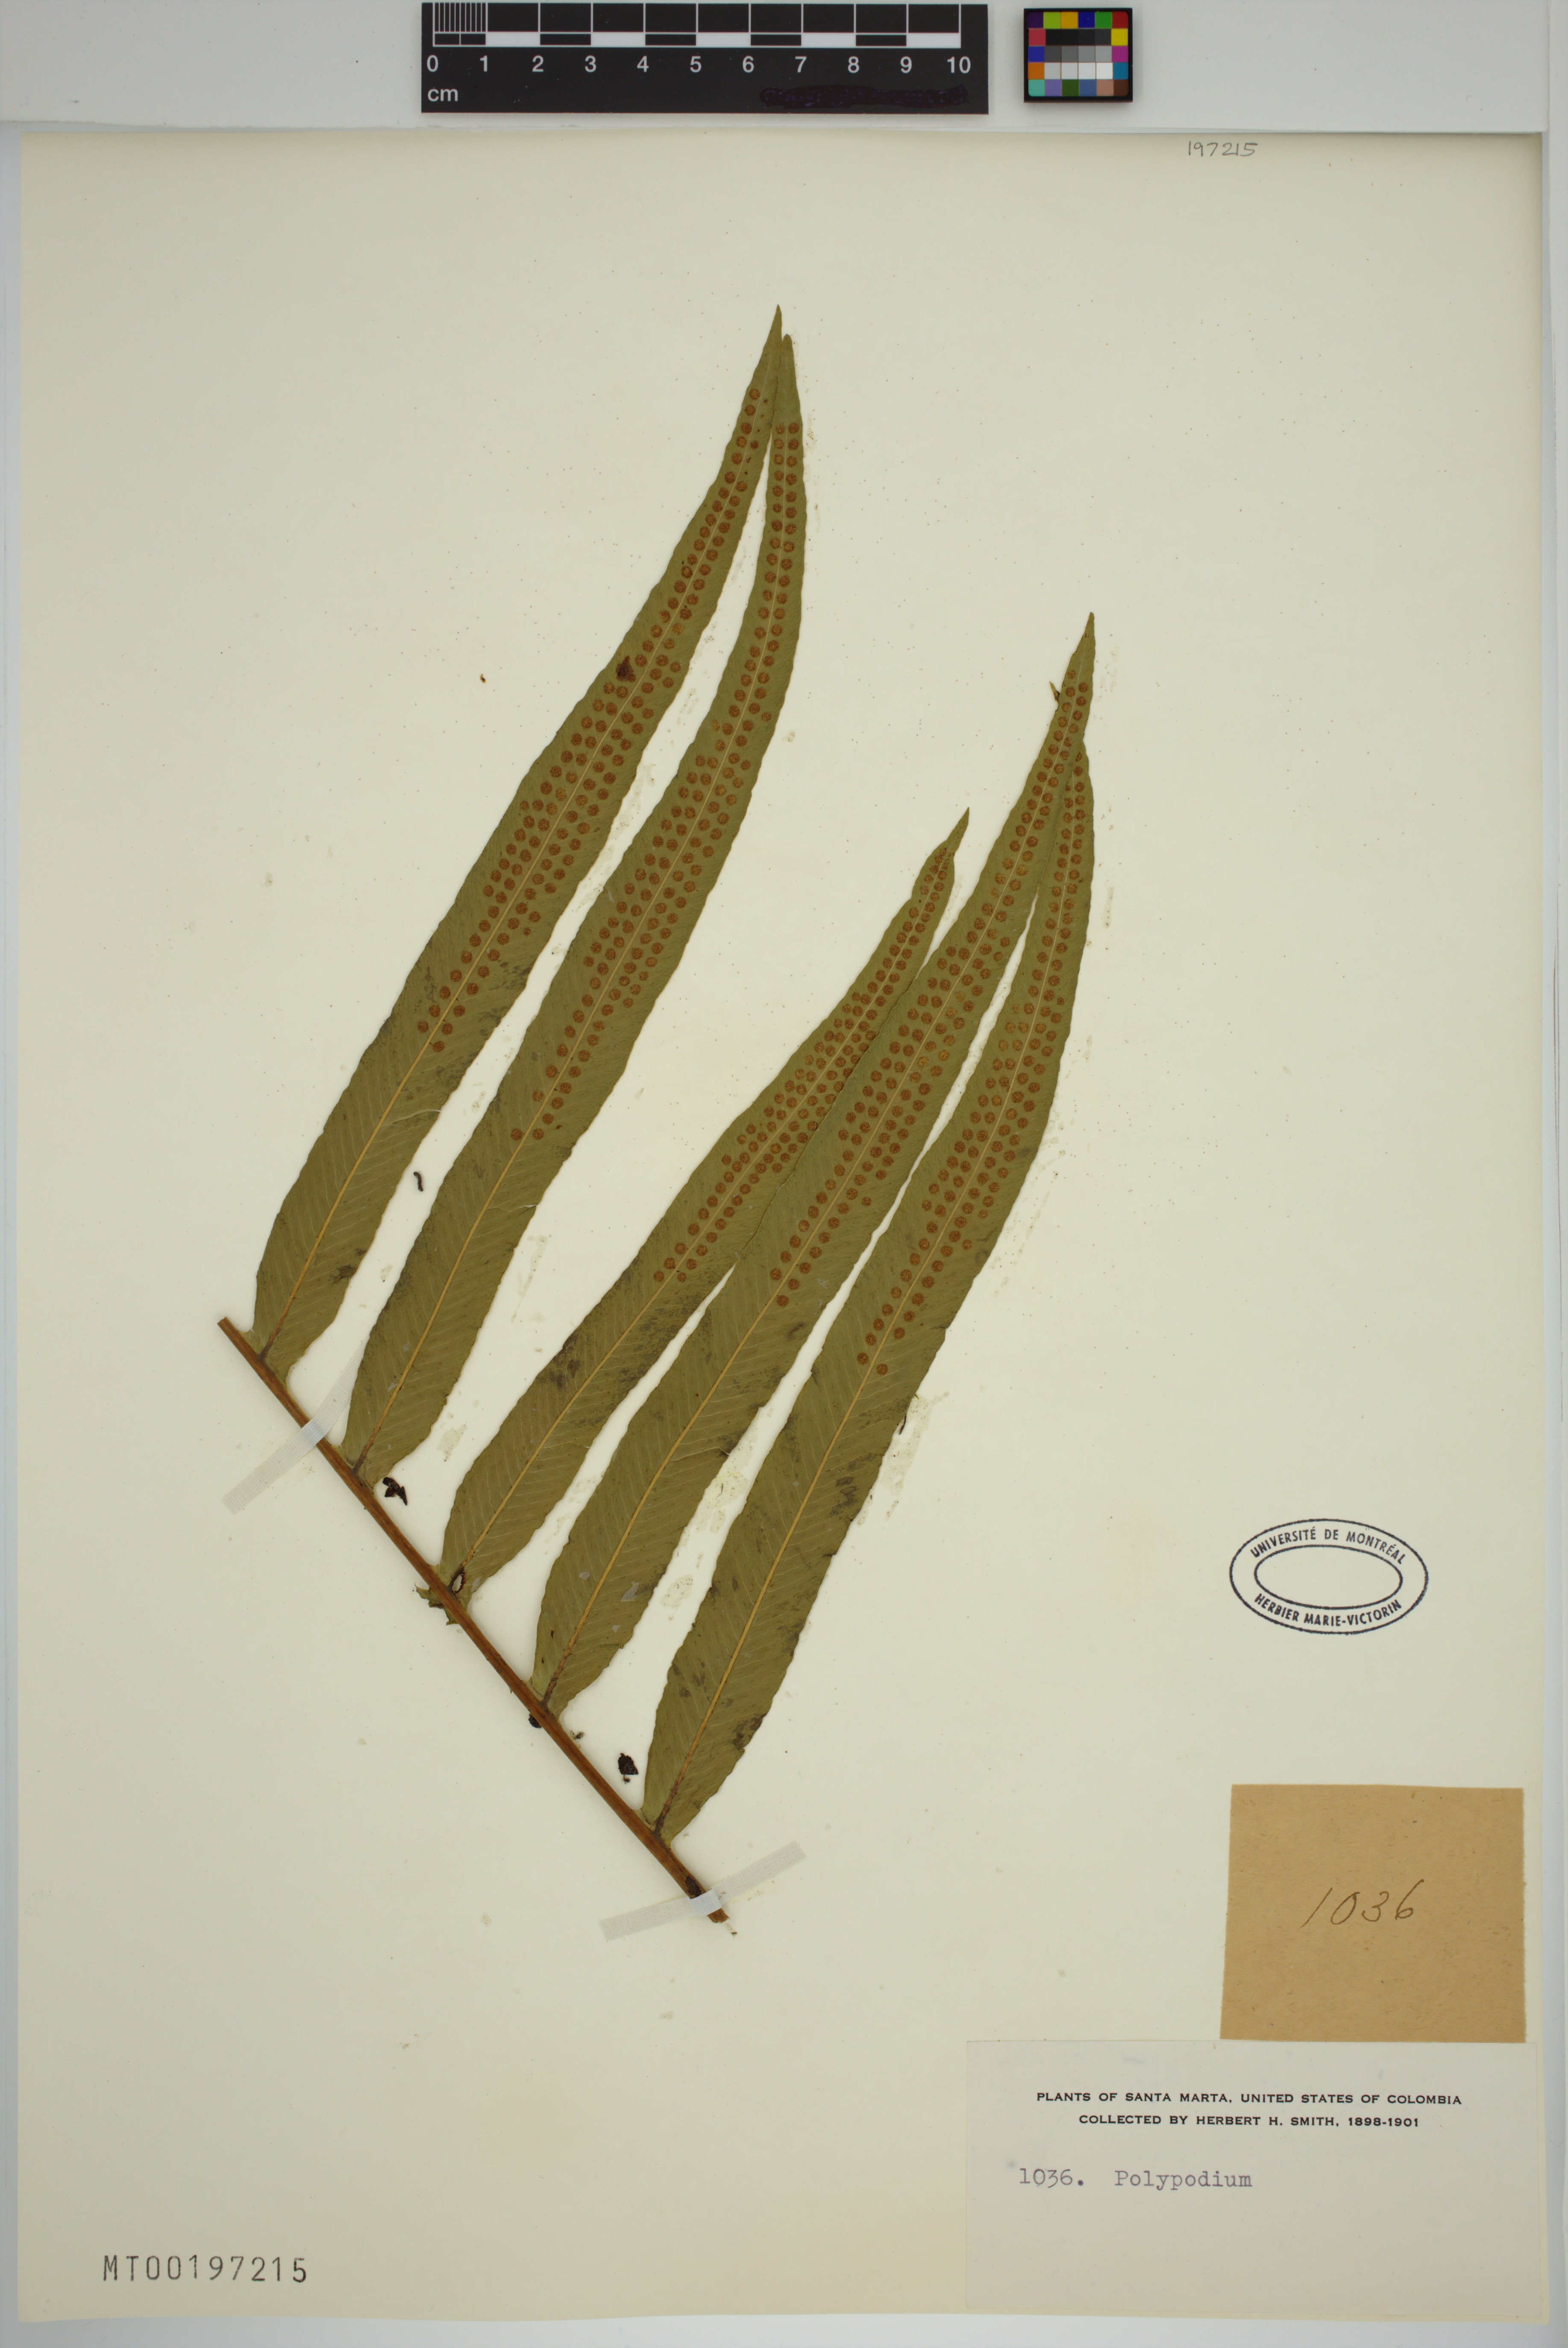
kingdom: Plantae
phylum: Tracheophyta
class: Polypodiopsida
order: Polypodiales
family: Polypodiaceae
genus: Polypodium
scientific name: Polypodium
